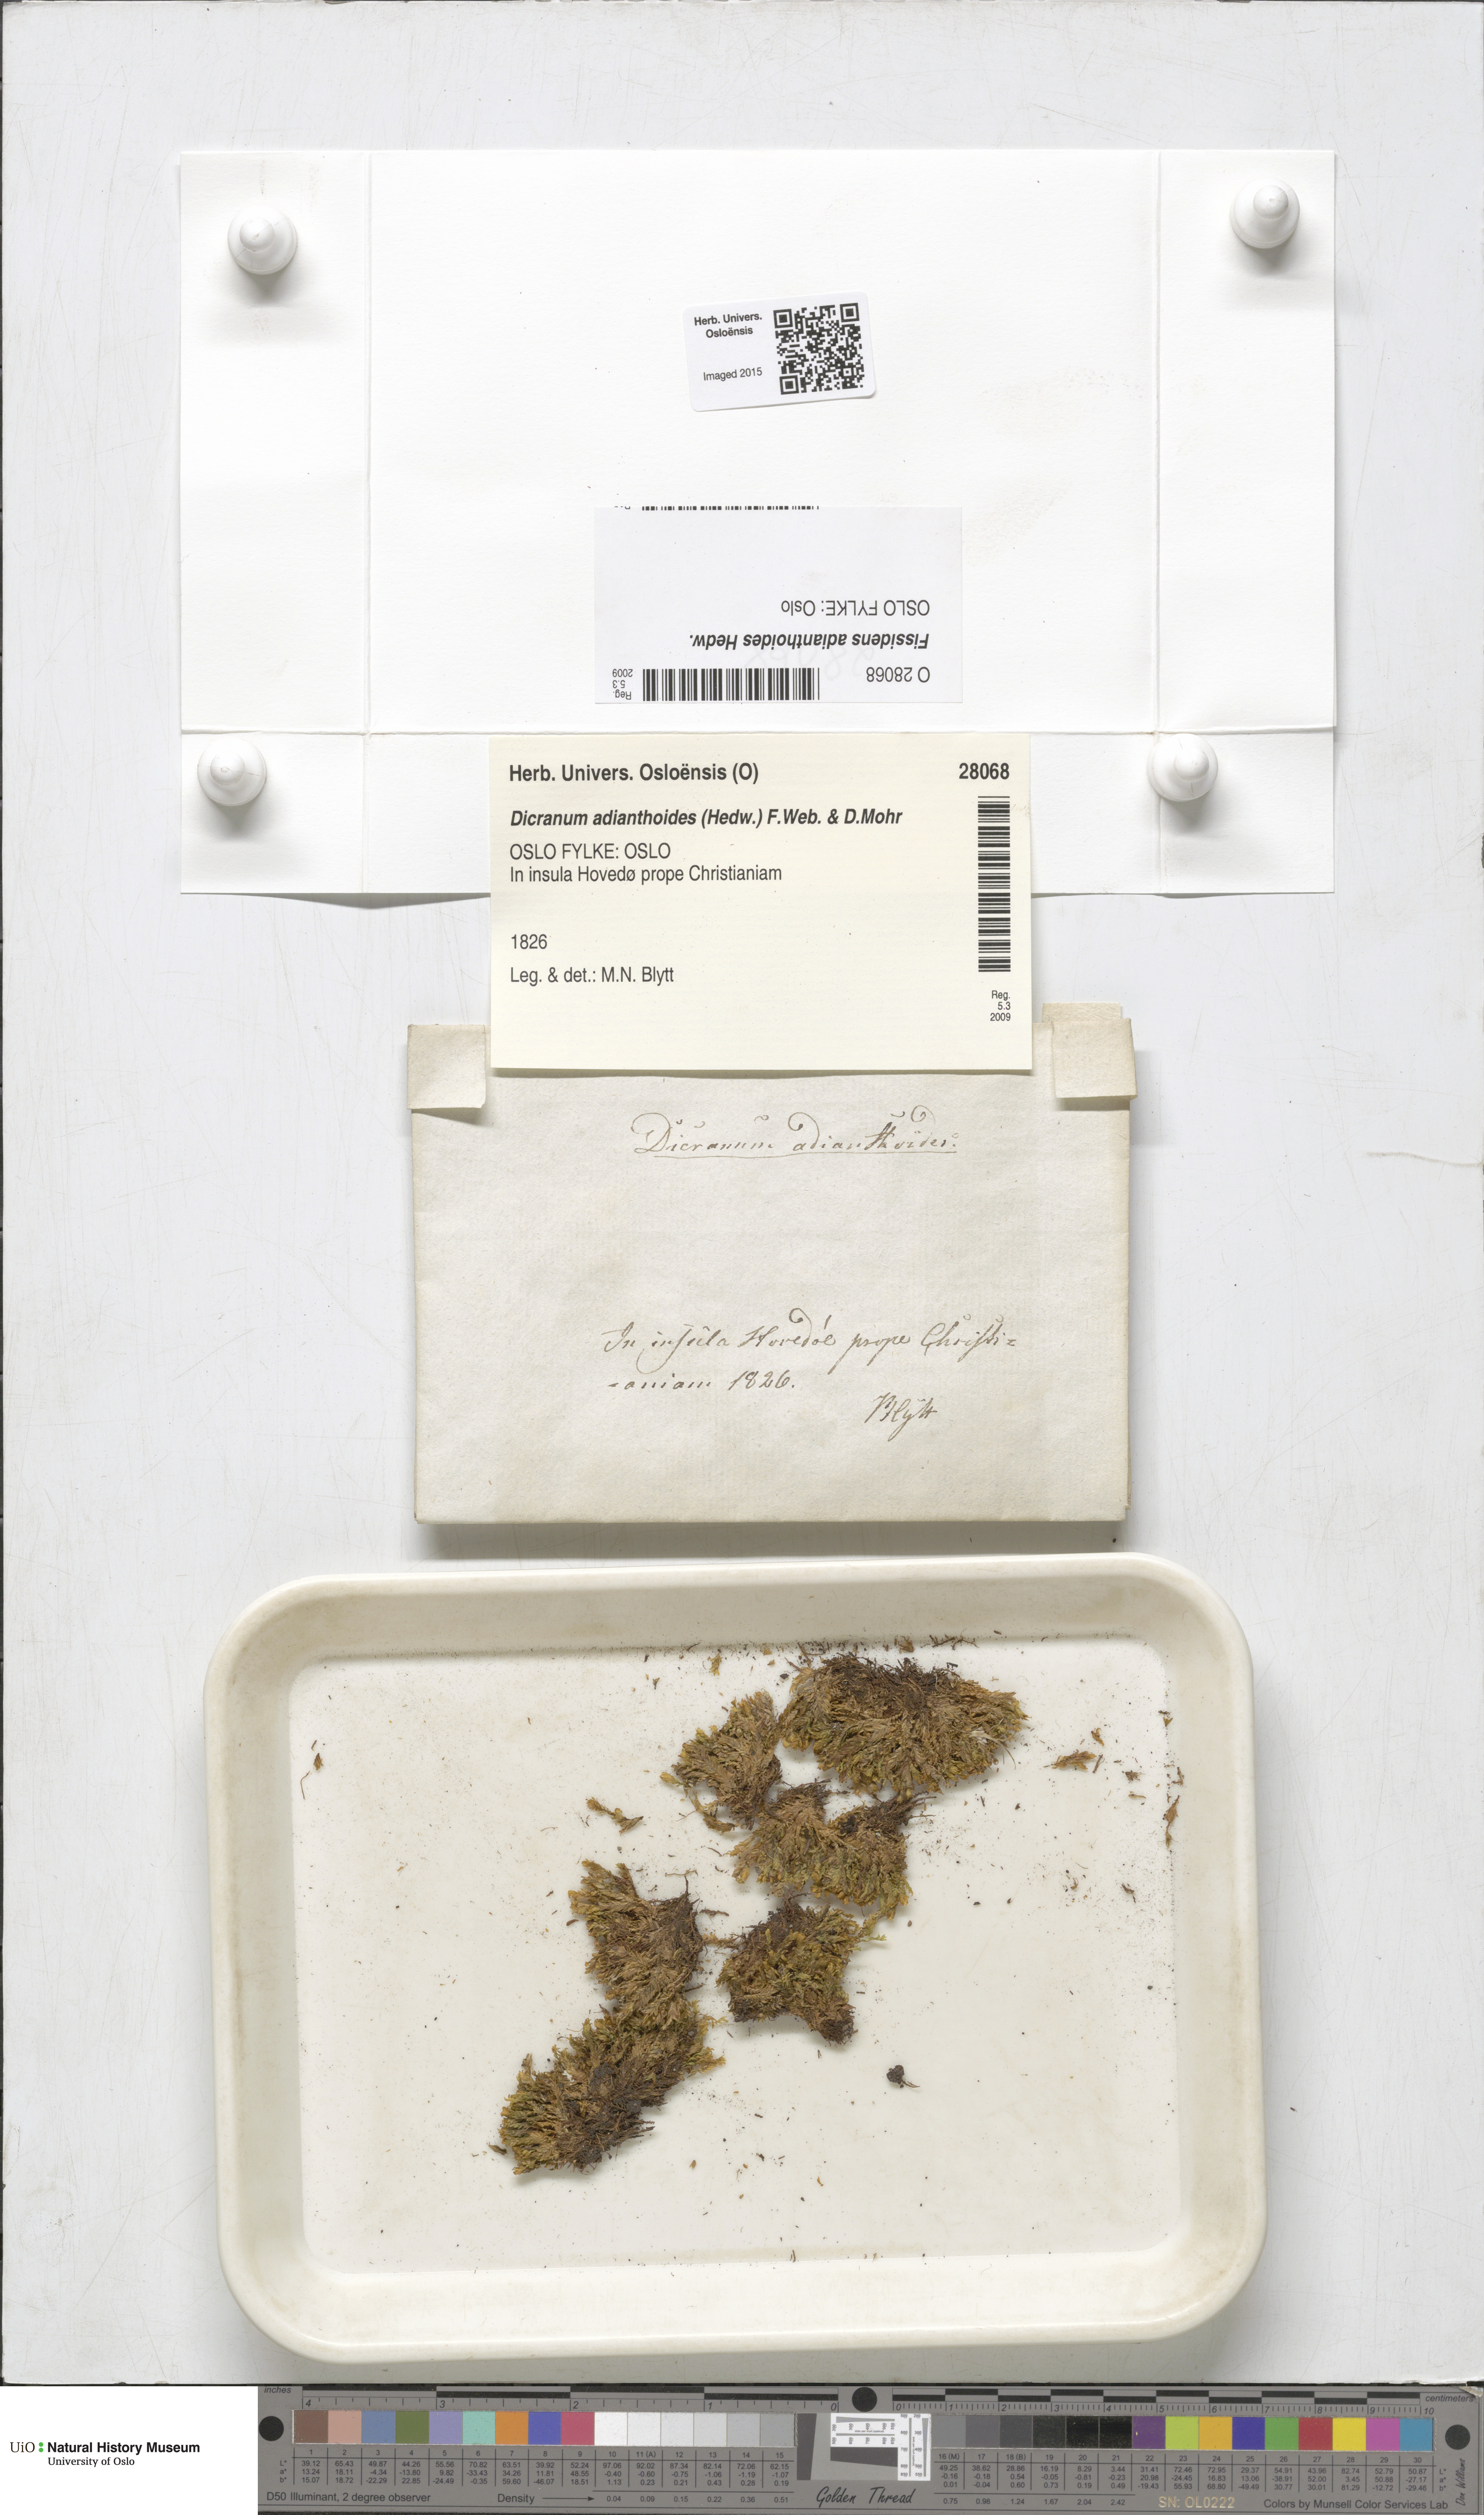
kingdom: Plantae
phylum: Bryophyta
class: Bryopsida
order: Dicranales
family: Fissidentaceae
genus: Fissidens
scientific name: Fissidens adianthoides
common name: Maidenhair pocket moss
